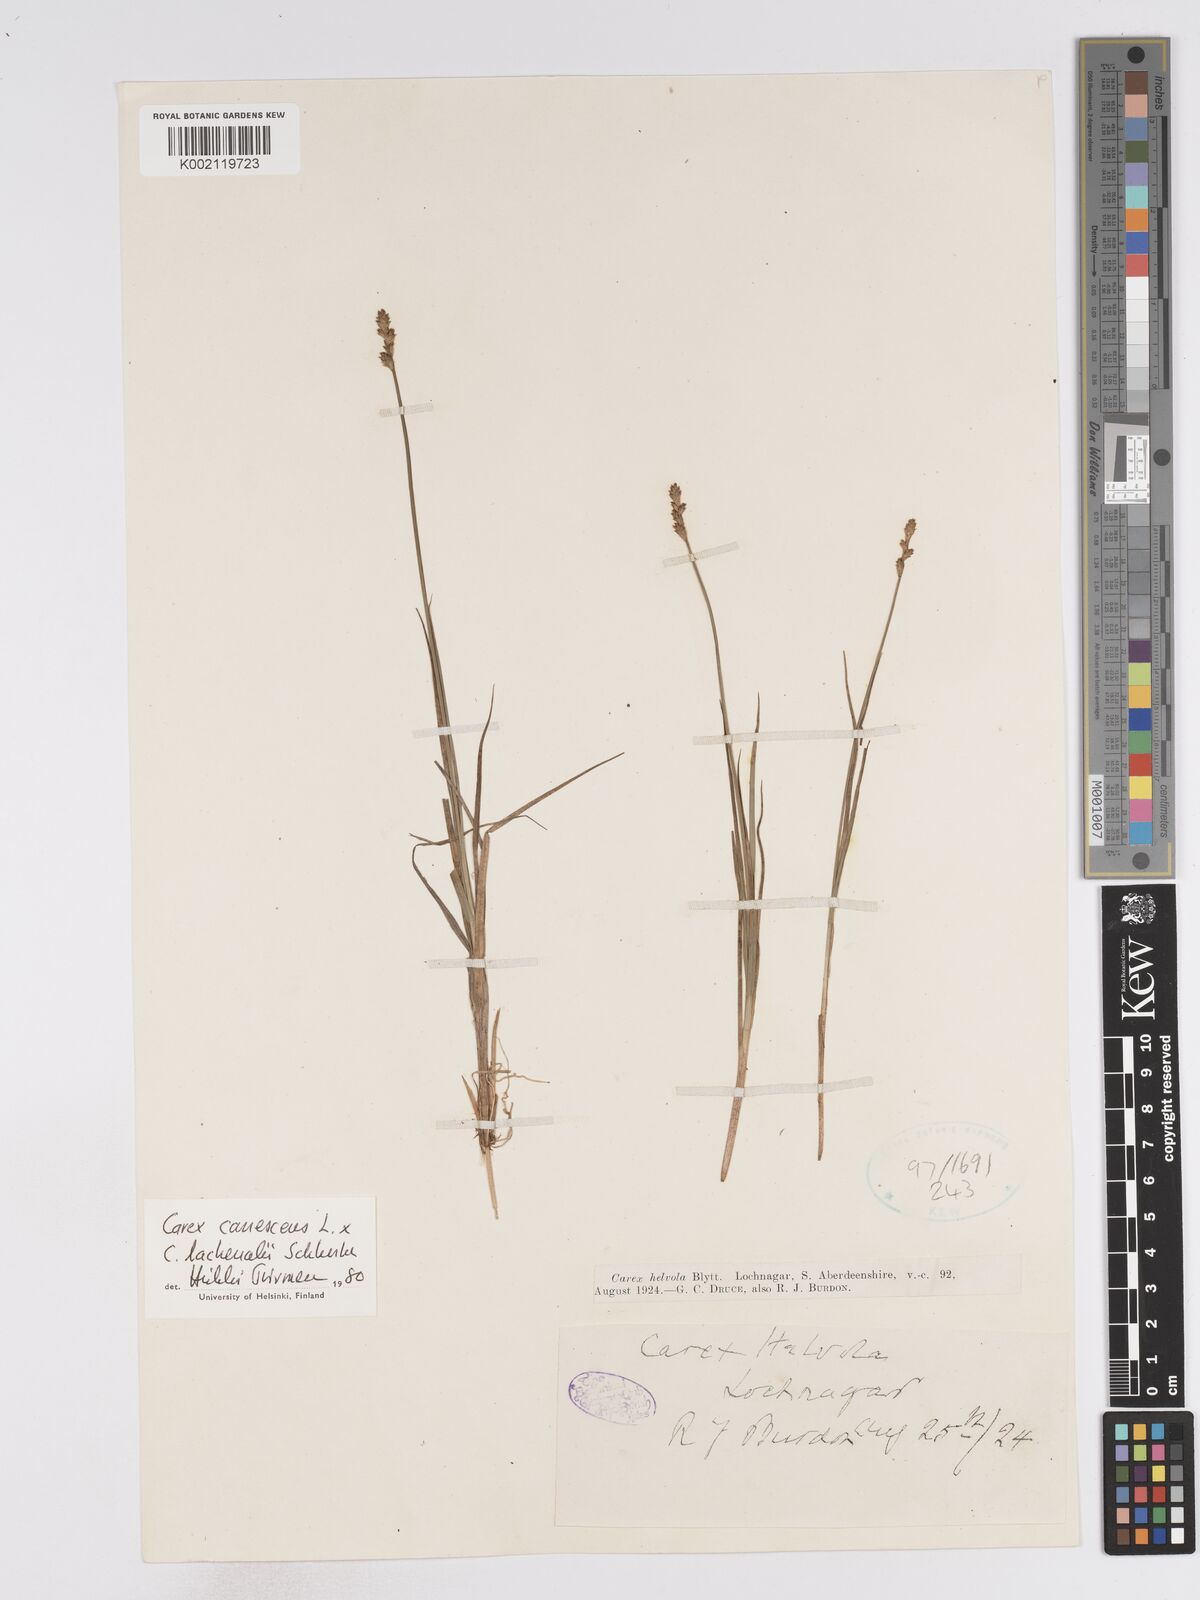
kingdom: Plantae
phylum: Tracheophyta
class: Liliopsida
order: Poales
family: Cyperaceae
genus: Carex
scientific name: Carex helvola
